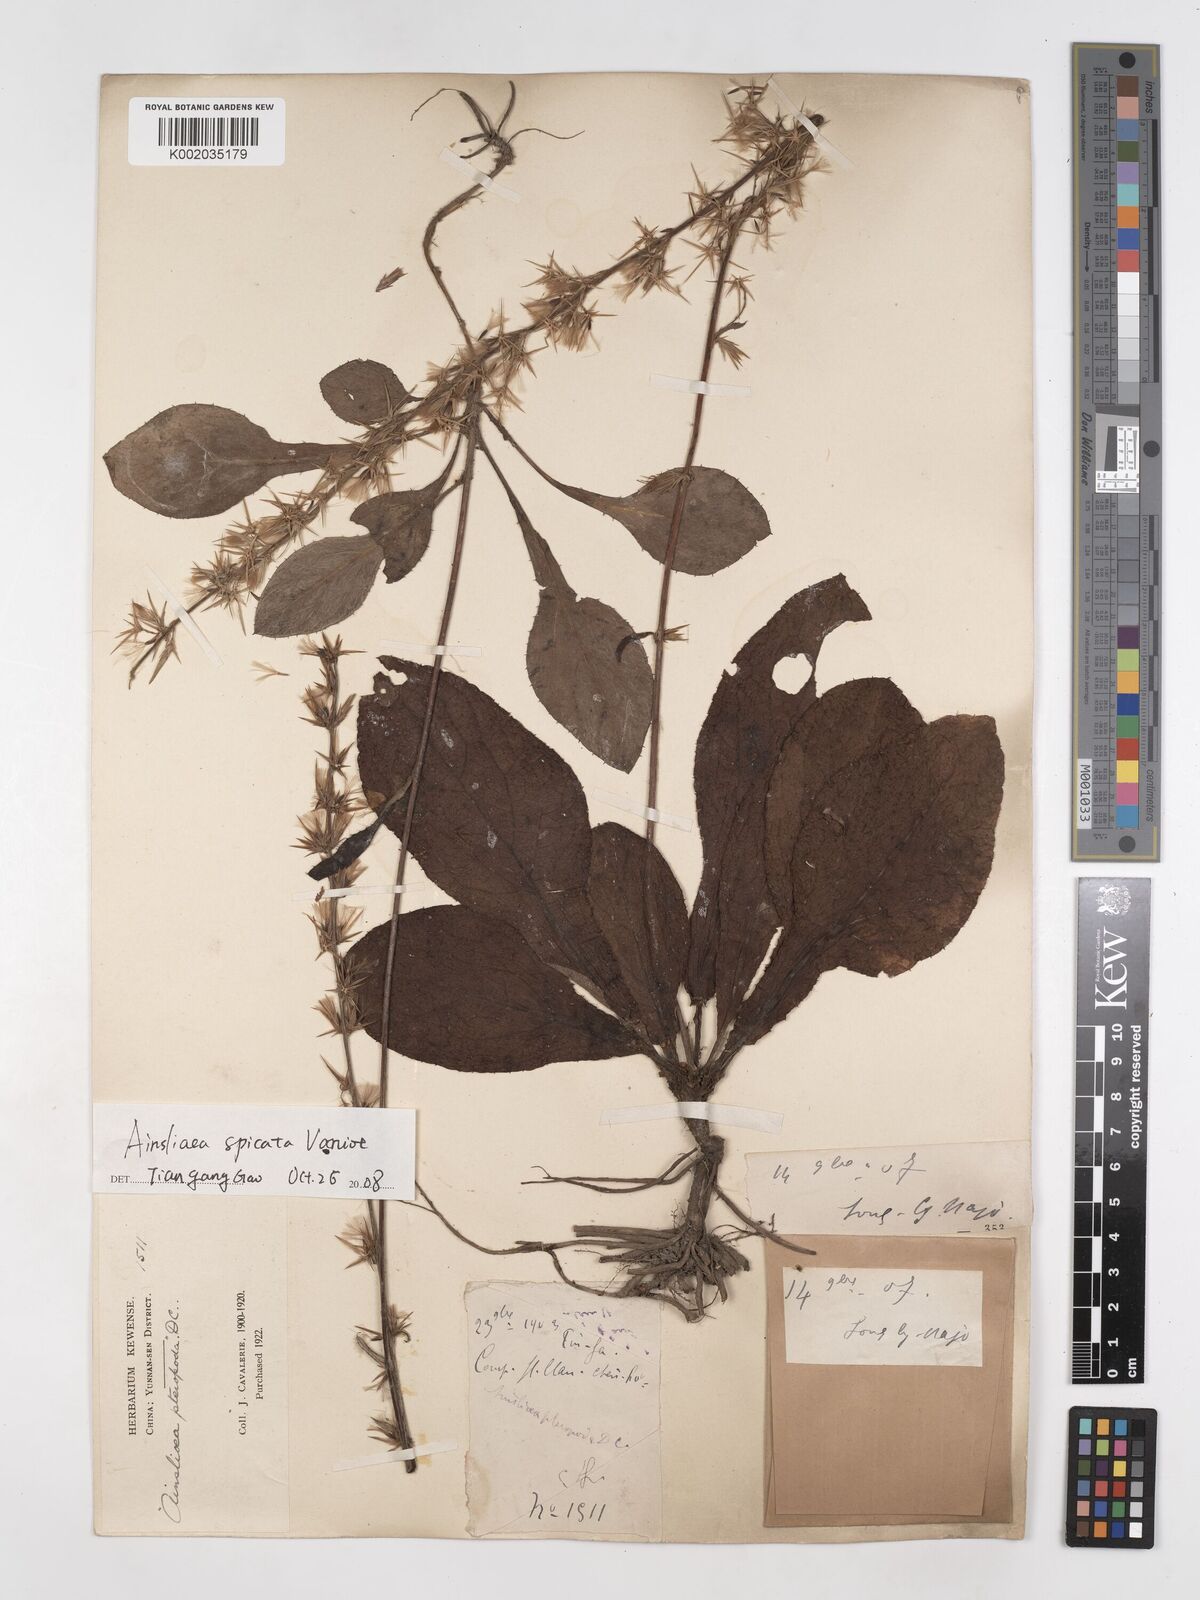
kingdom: Plantae
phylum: Tracheophyta
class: Magnoliopsida
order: Asterales
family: Asteraceae
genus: Ainsliaea
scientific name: Ainsliaea spicata
